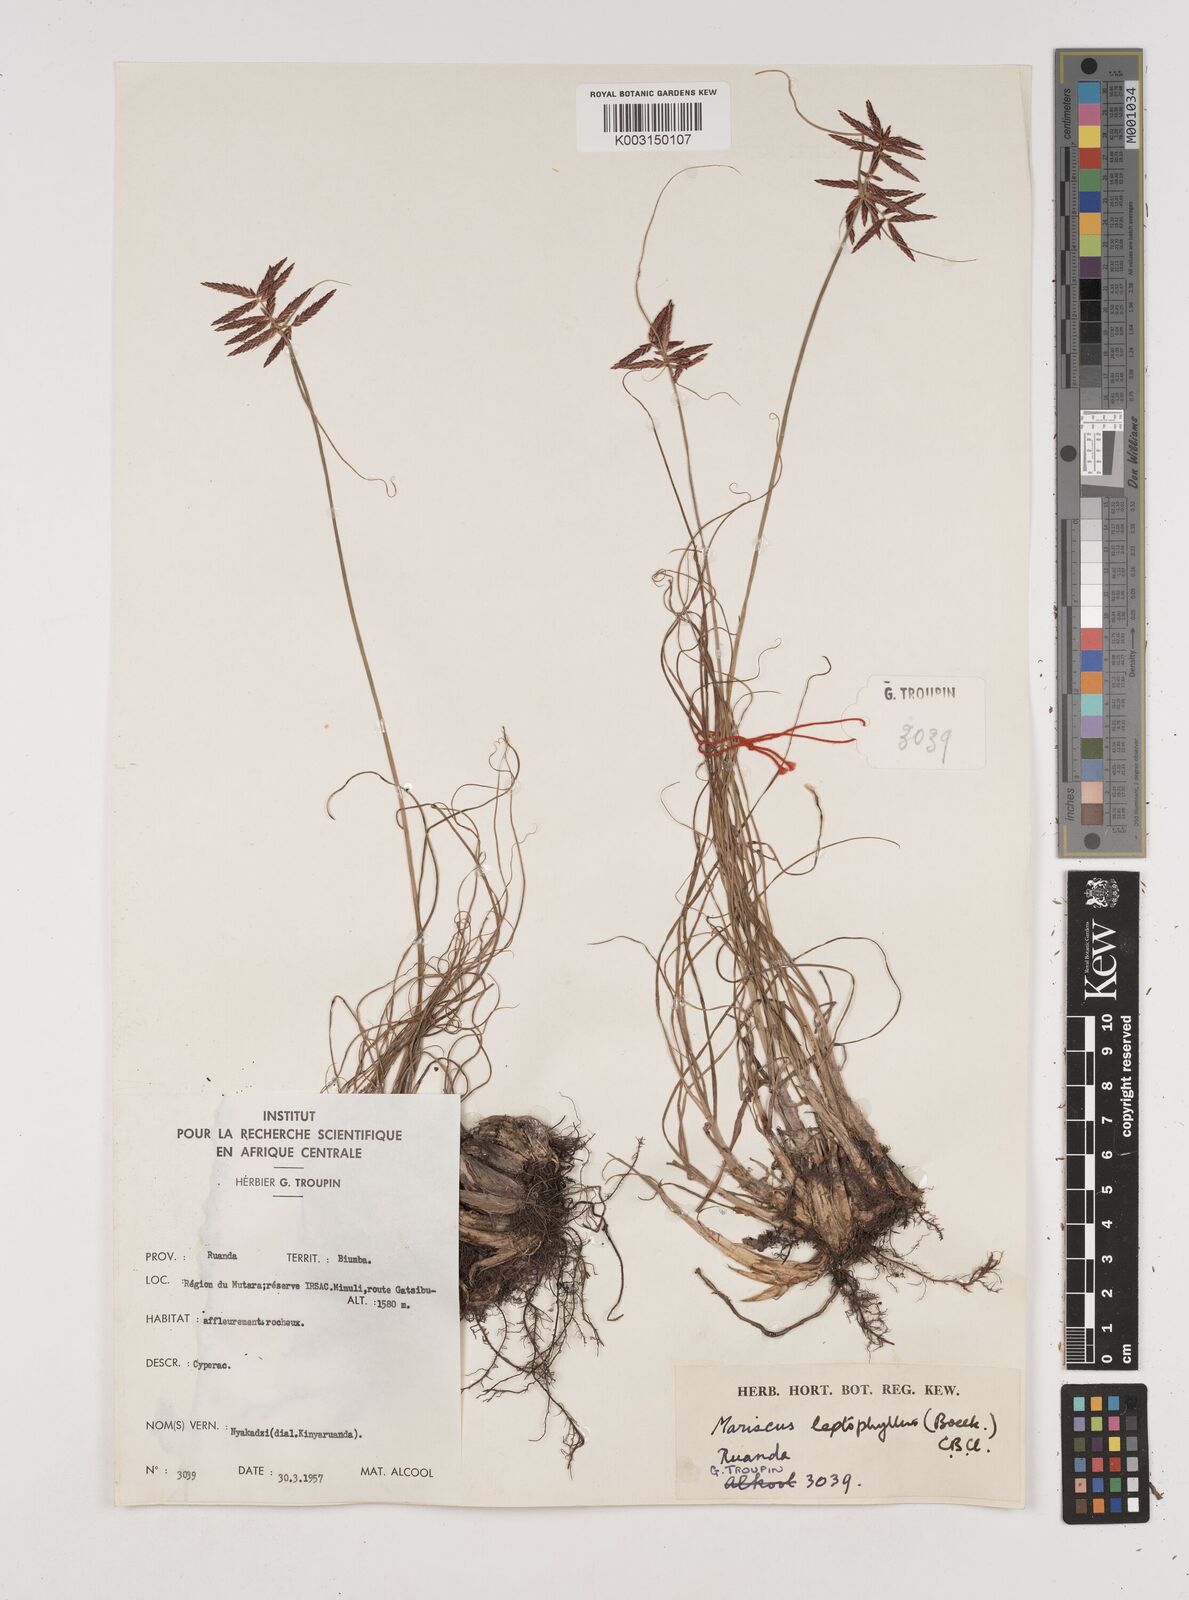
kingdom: Plantae
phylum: Tracheophyta
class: Liliopsida
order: Poales
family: Cyperaceae
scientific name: Cyperaceae
